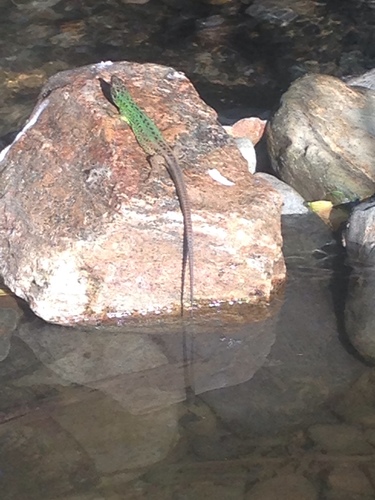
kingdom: Animalia
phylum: Chordata
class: Squamata
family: Lacertidae
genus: Lacerta
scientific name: Lacerta schreiberi
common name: Iberian emerald lizard
